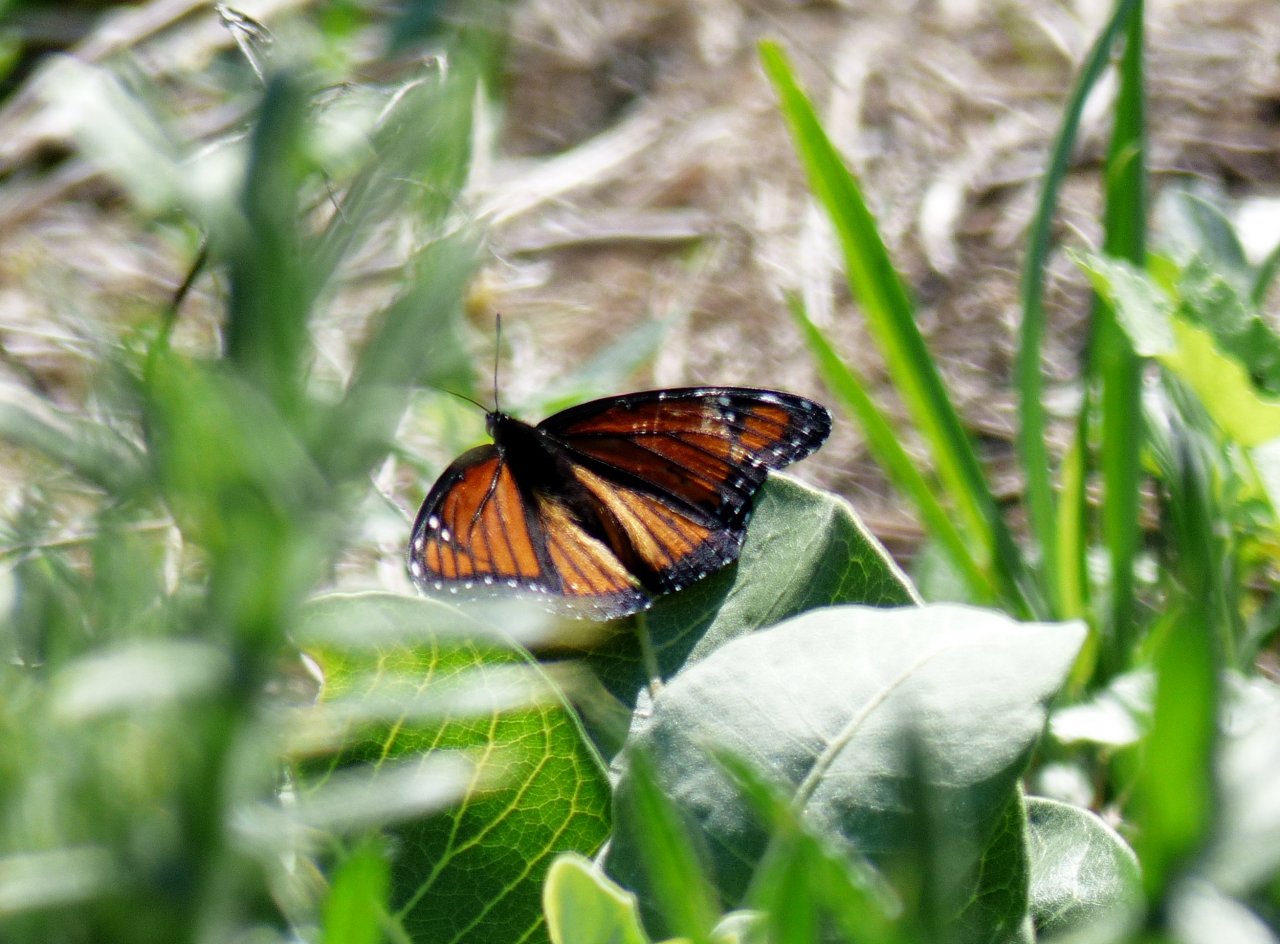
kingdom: Animalia
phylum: Arthropoda
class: Insecta
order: Lepidoptera
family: Nymphalidae
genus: Limenitis
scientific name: Limenitis archippus
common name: Viceroy
